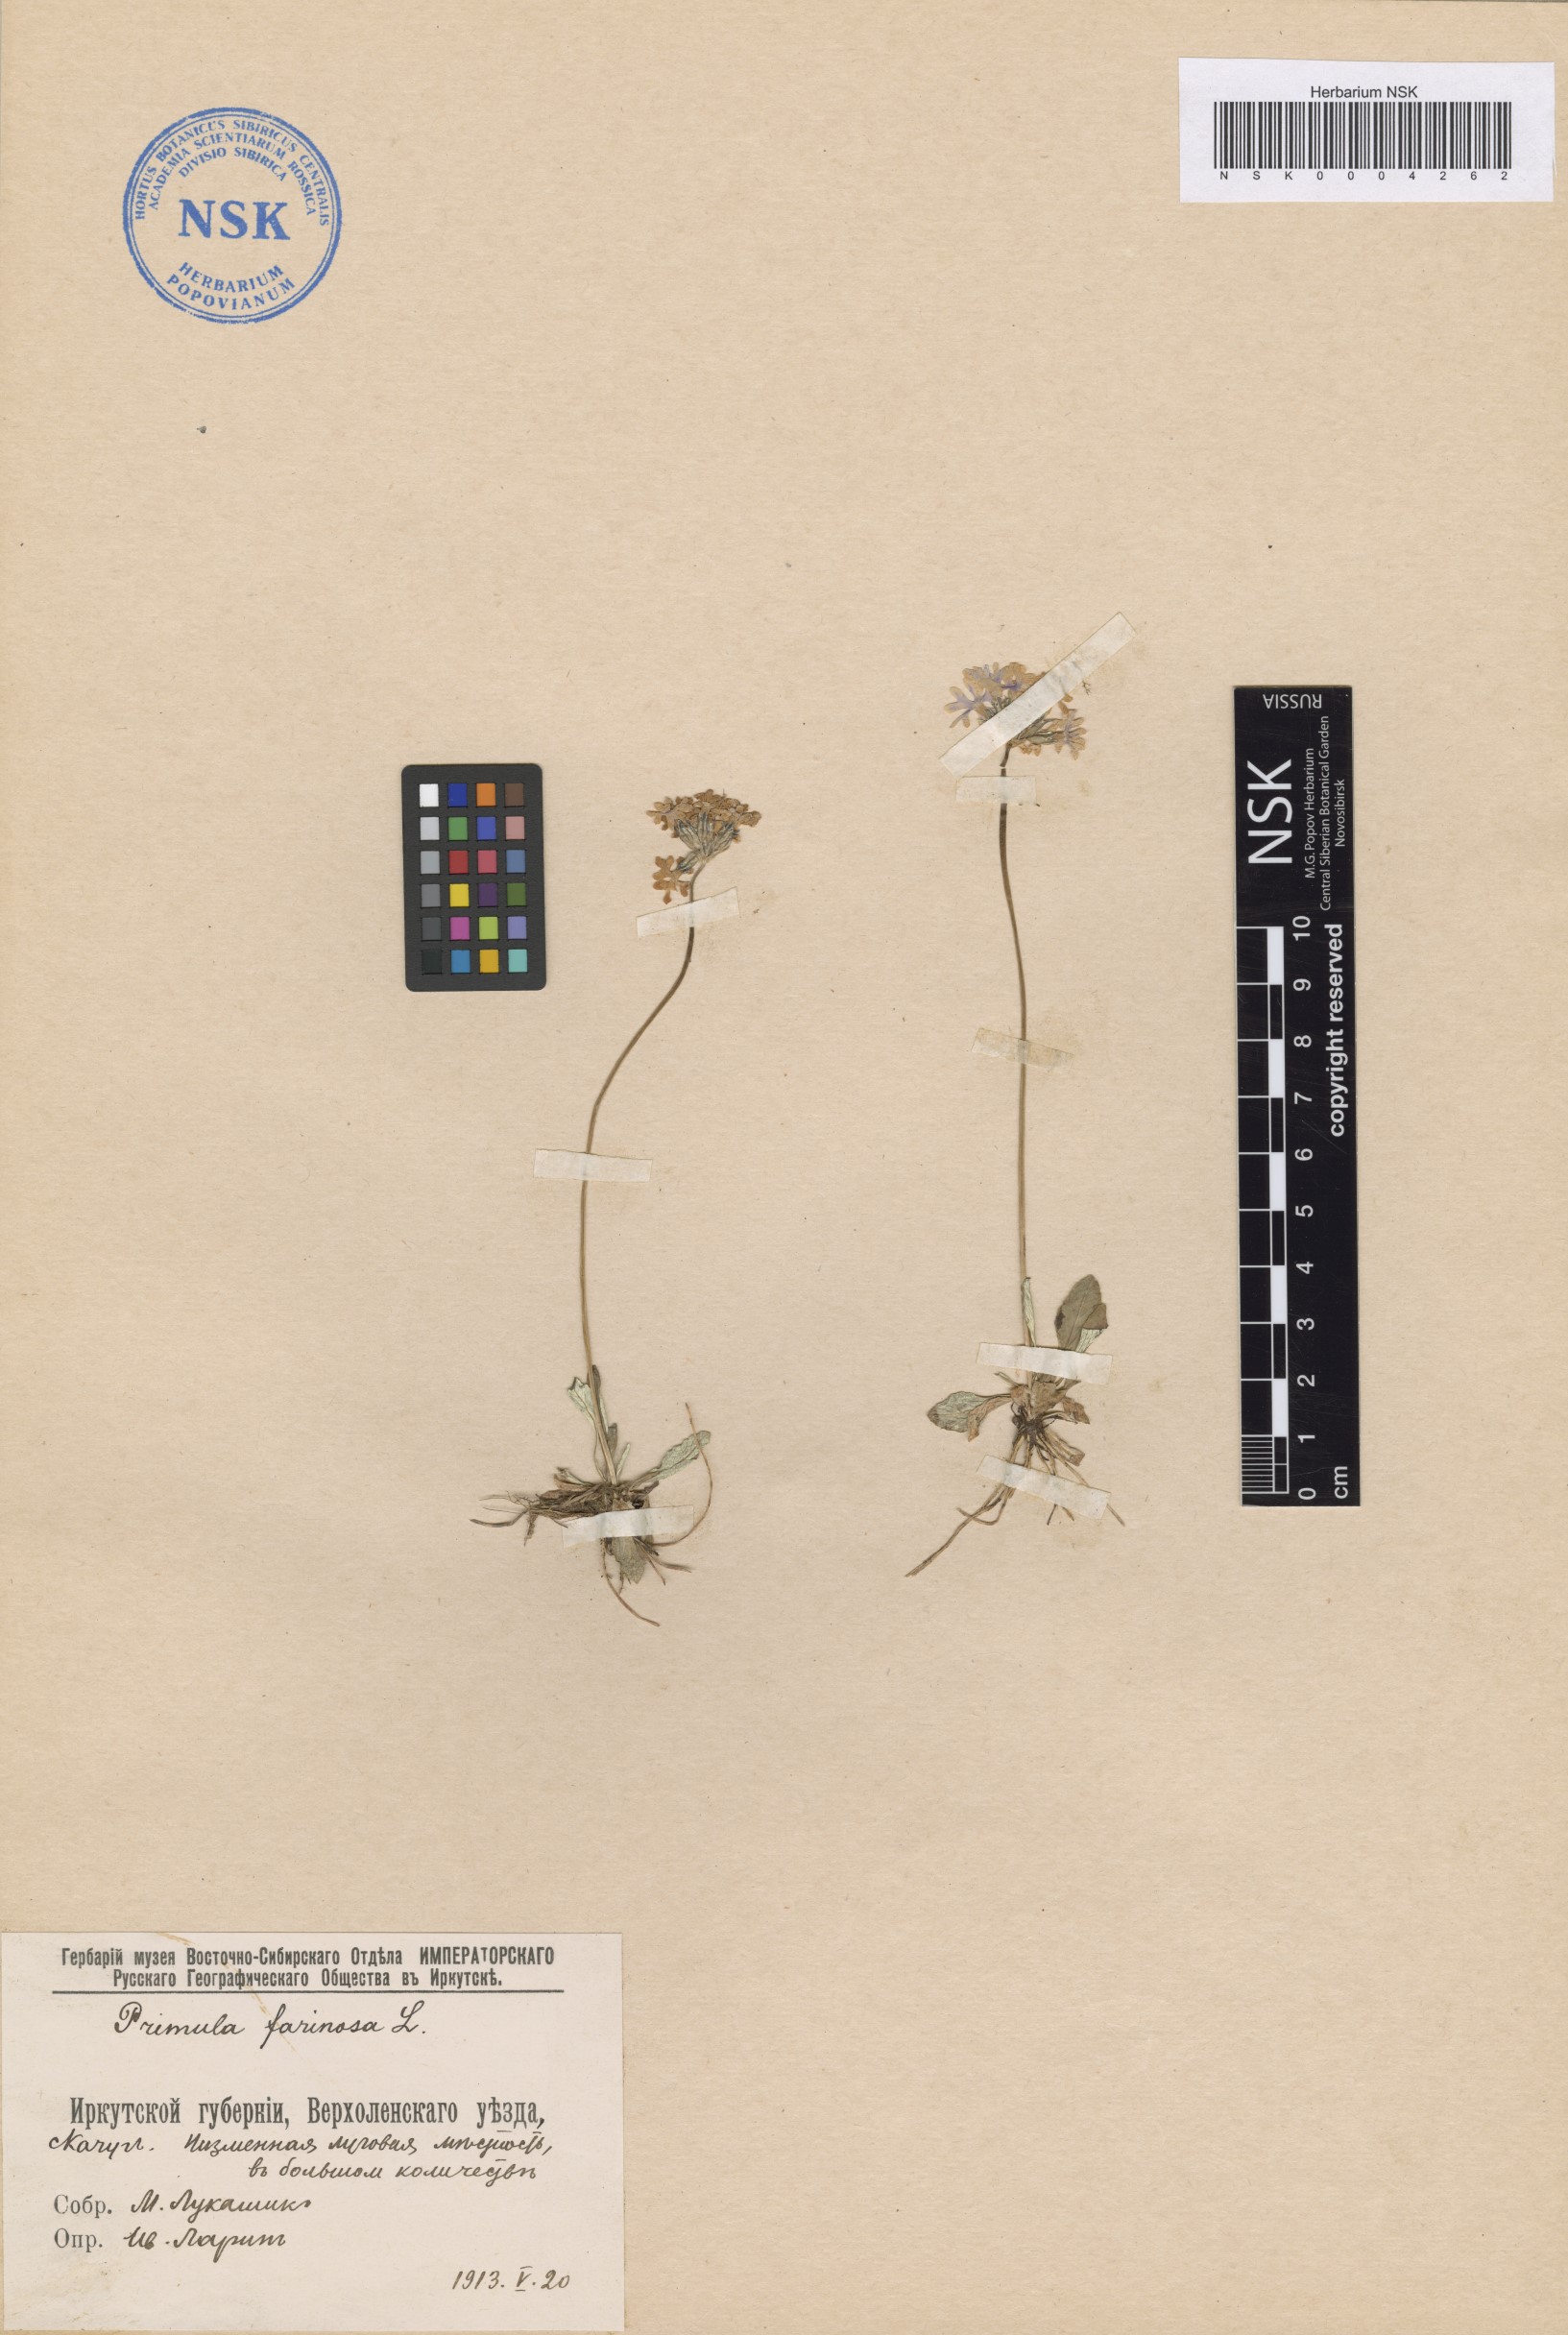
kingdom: Plantae
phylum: Tracheophyta
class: Magnoliopsida
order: Ericales
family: Primulaceae
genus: Primula
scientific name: Primula farinosa
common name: Bird's-eye primrose
